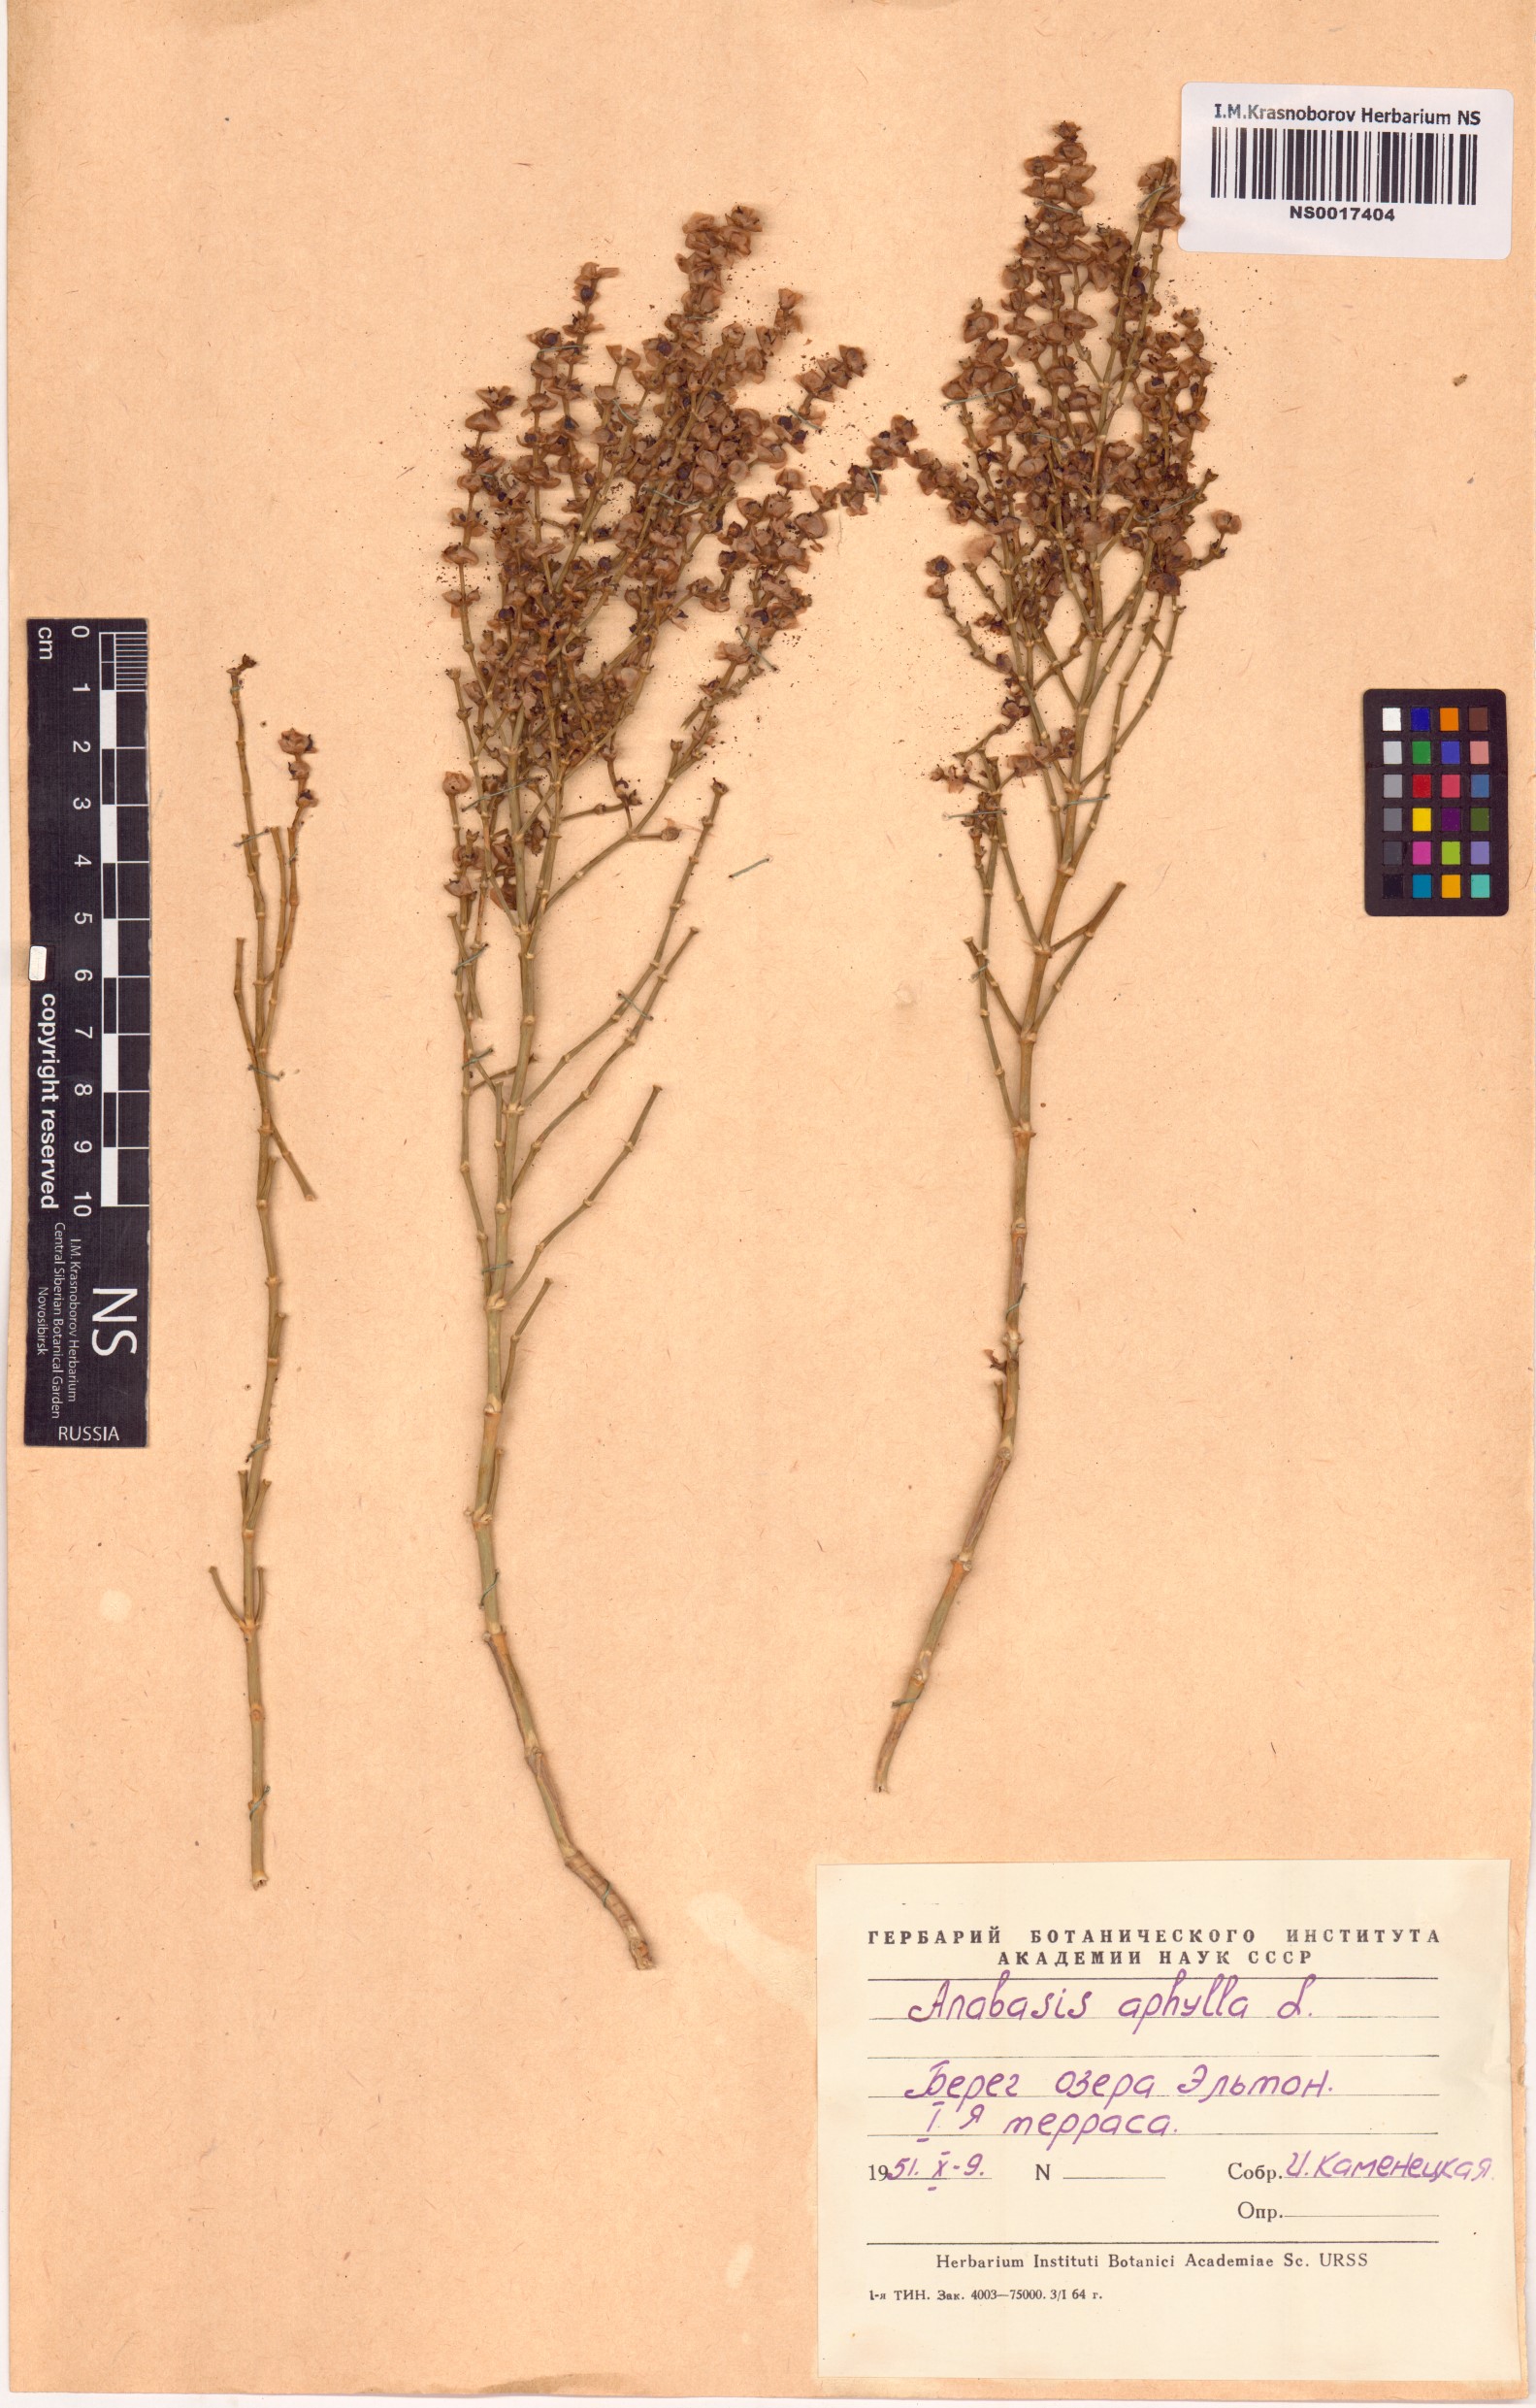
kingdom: Plantae
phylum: Tracheophyta
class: Magnoliopsida
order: Caryophyllales
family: Amaranthaceae
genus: Anabasis
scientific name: Anabasis aphylla
